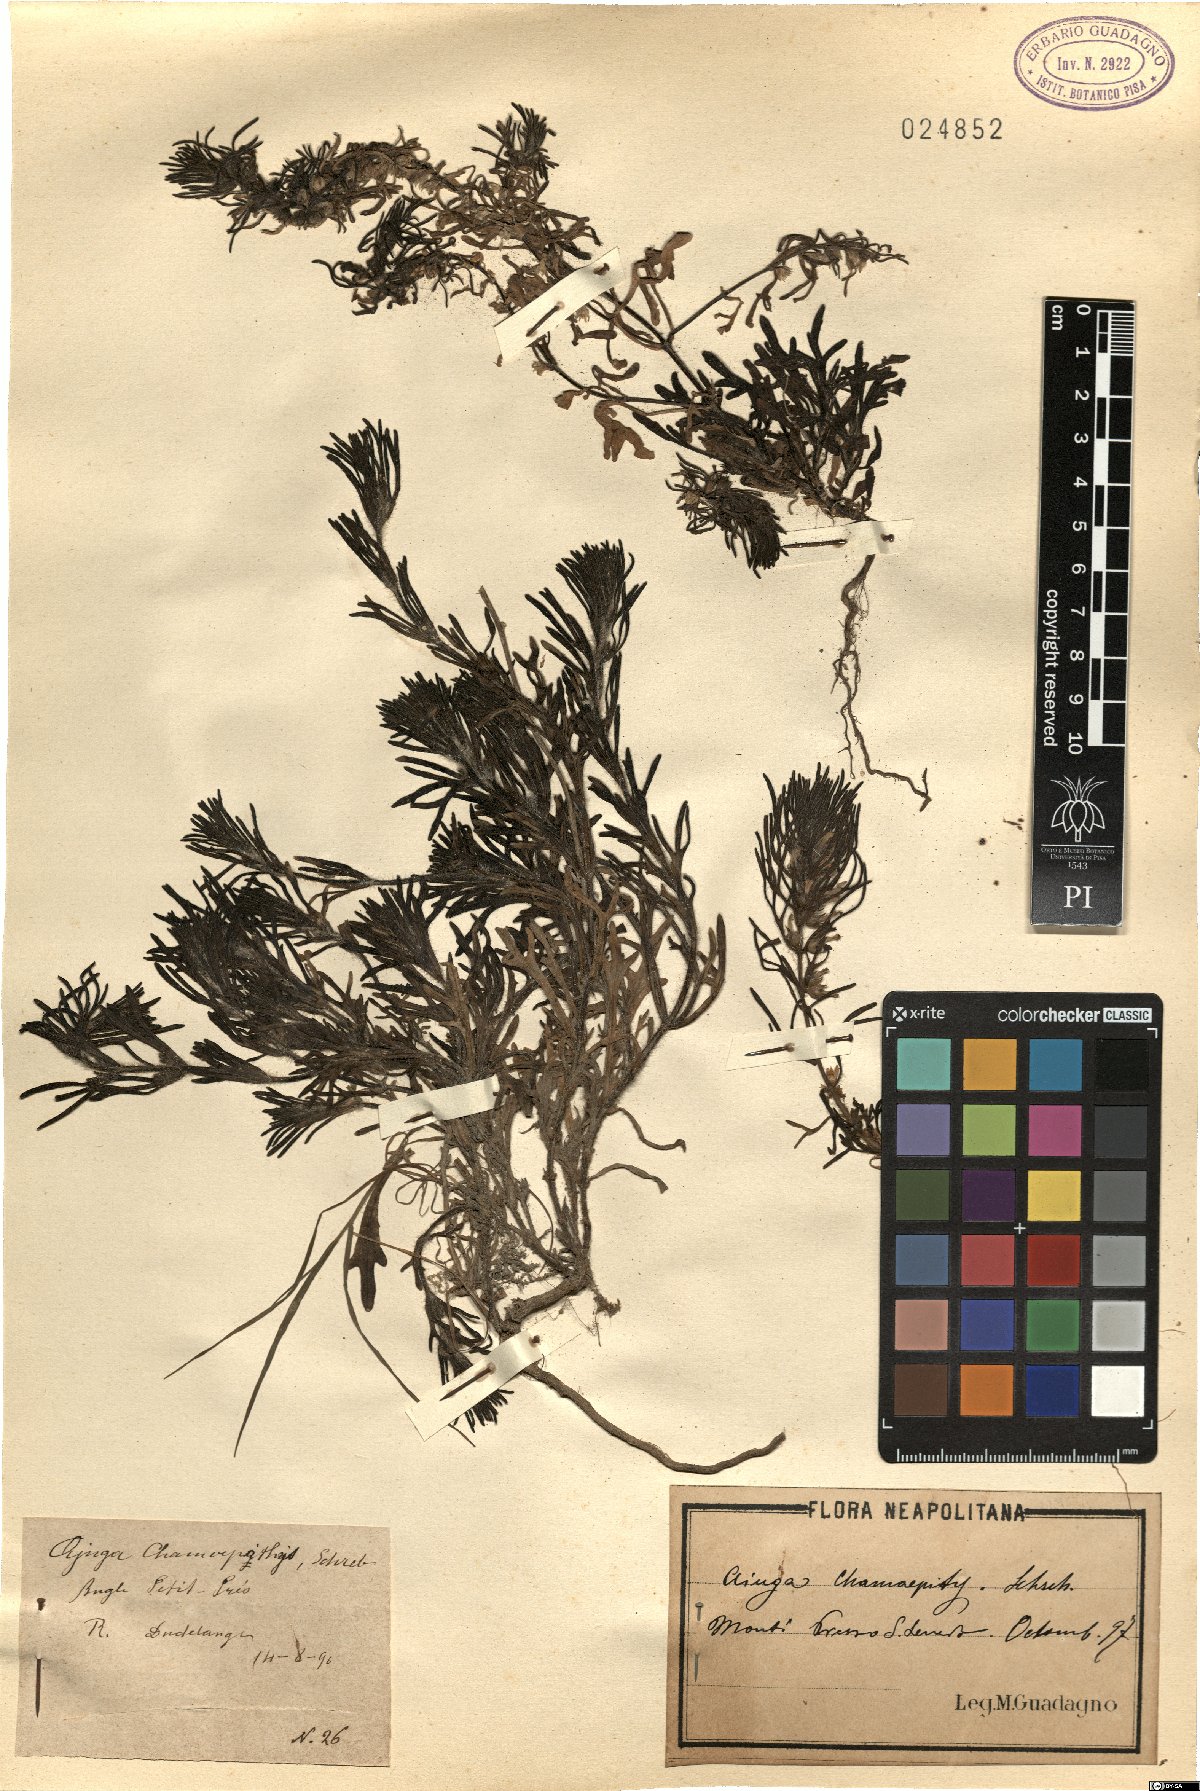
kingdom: Plantae
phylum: Tracheophyta
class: Magnoliopsida
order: Lamiales
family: Lamiaceae
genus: Ajuga
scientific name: Ajuga chamaepitys
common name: Ground-pine
